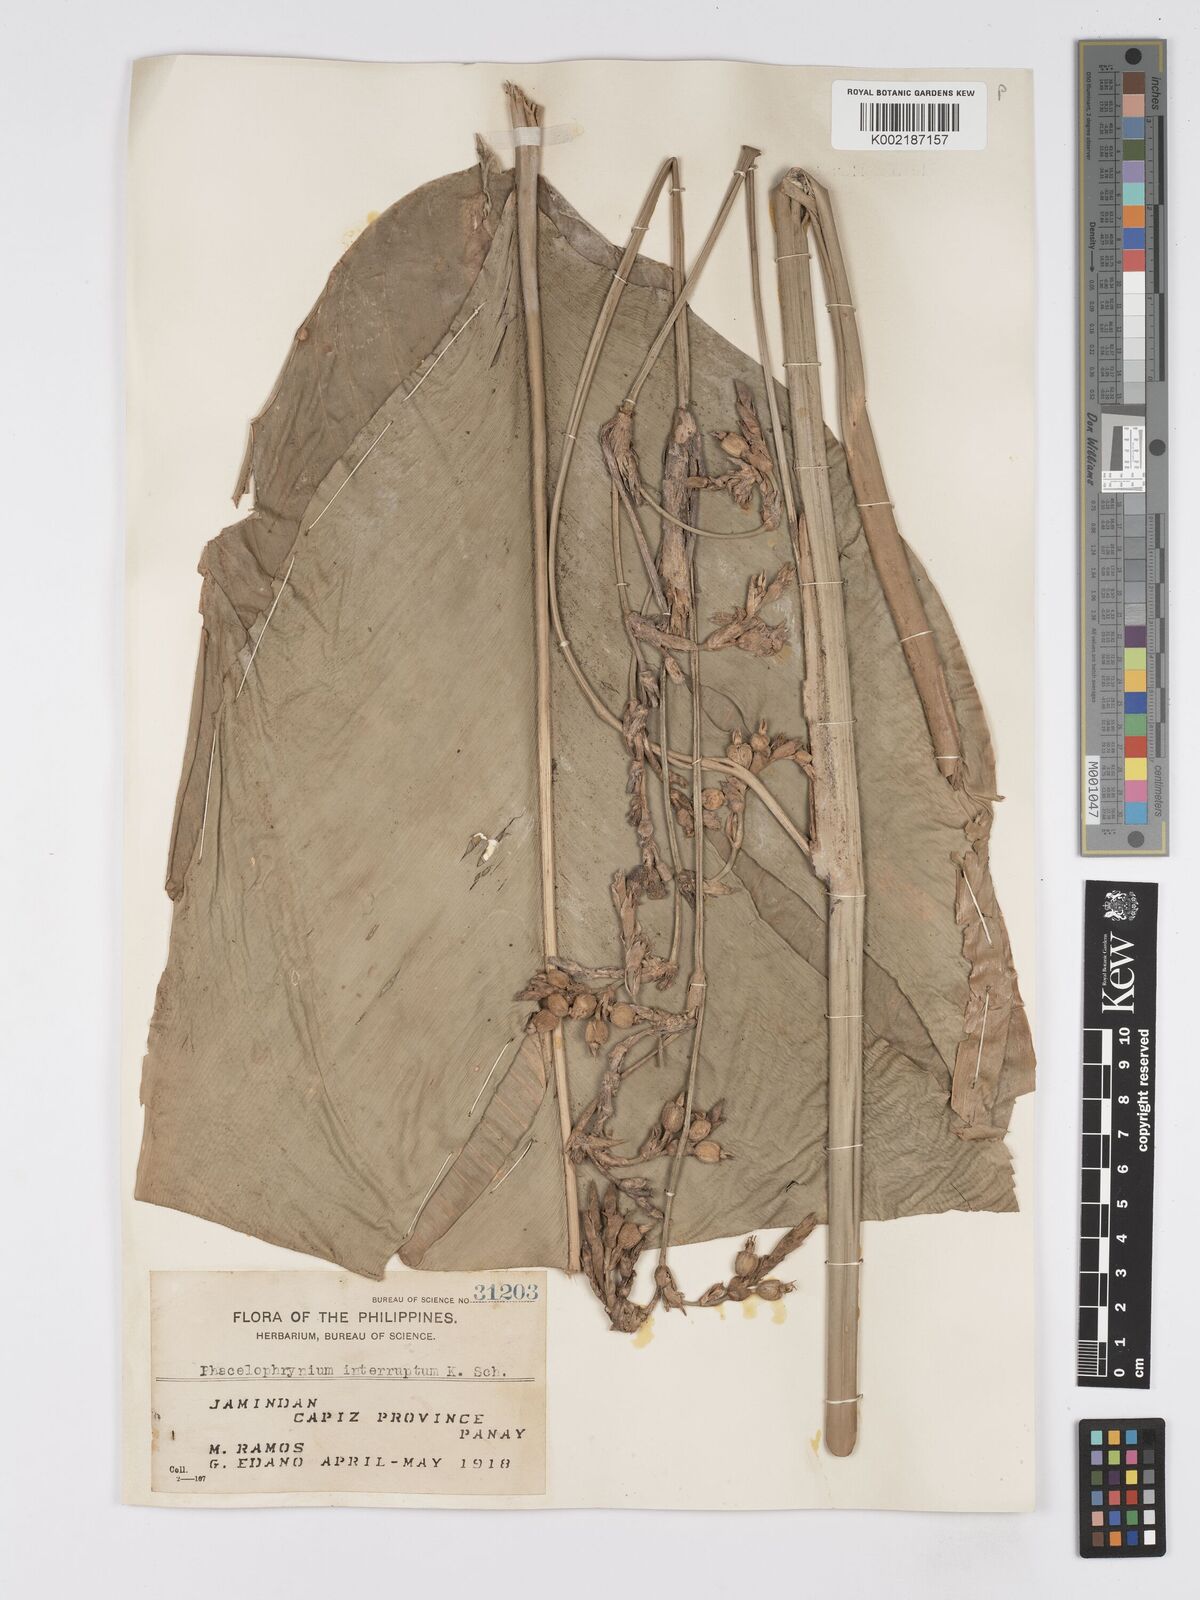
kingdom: Plantae
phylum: Tracheophyta
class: Liliopsida
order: Zingiberales
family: Marantaceae
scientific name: Marantaceae
